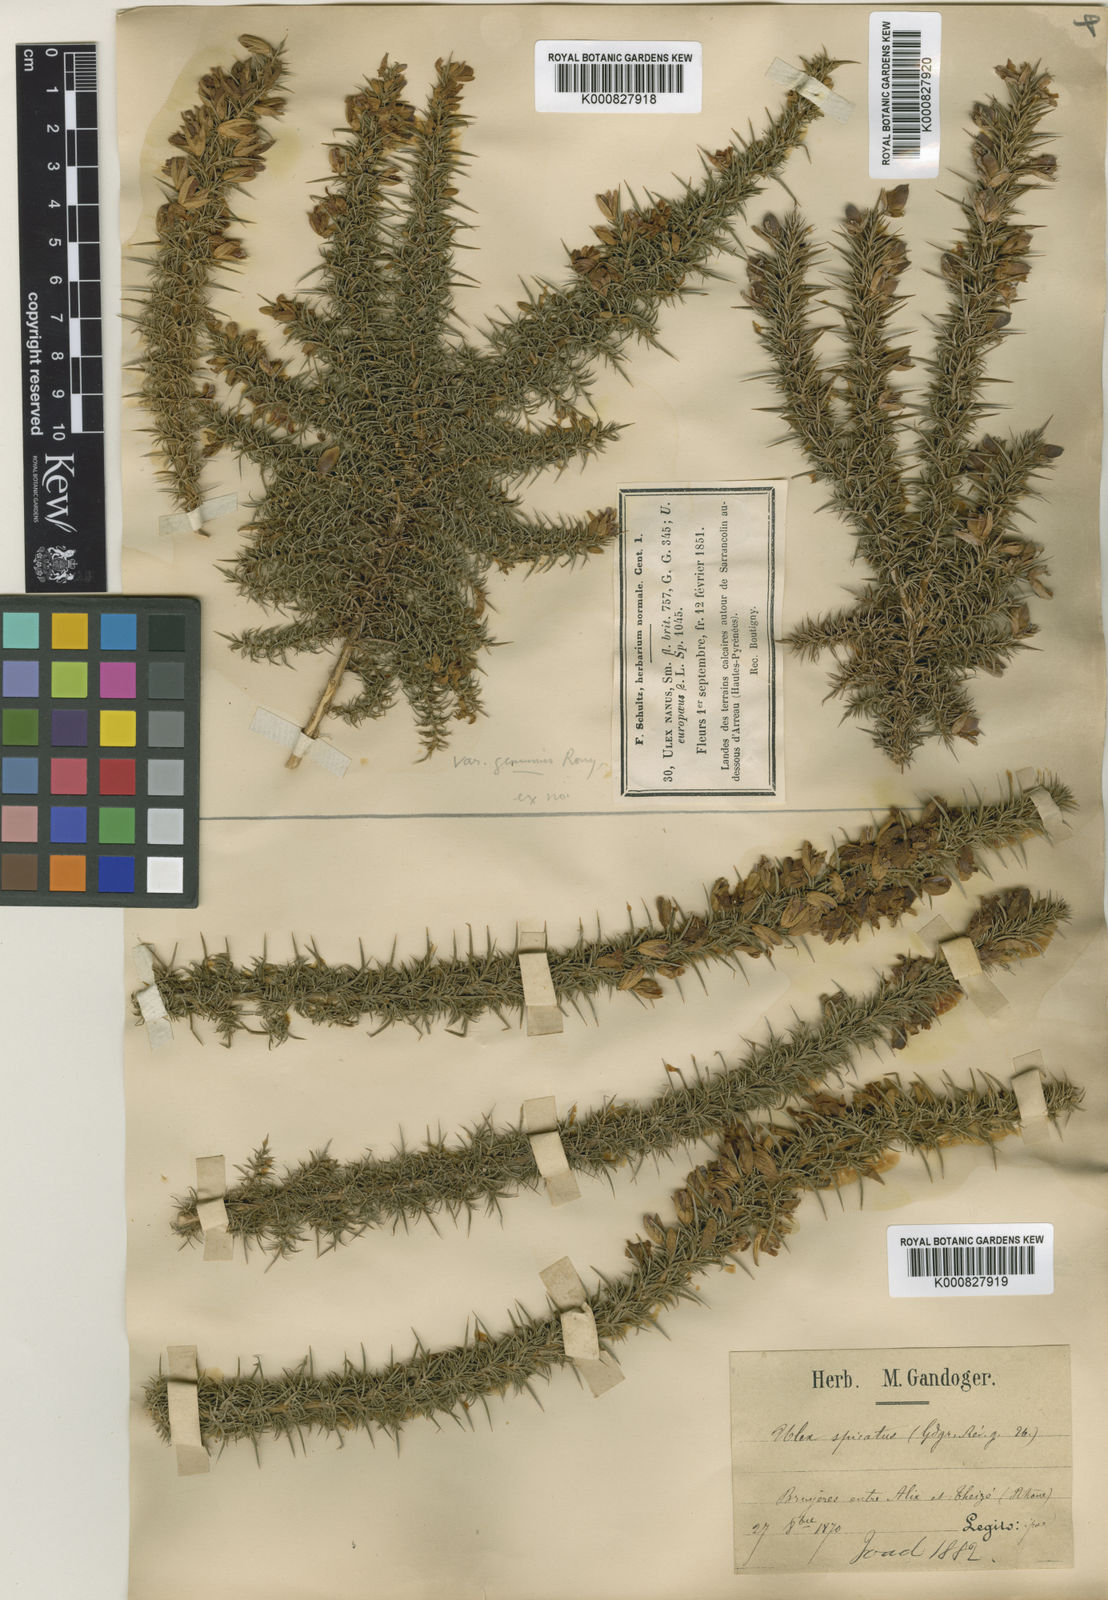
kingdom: Plantae
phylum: Tracheophyta
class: Magnoliopsida
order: Fabales
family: Fabaceae
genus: Ulex
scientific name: Ulex spicatus
